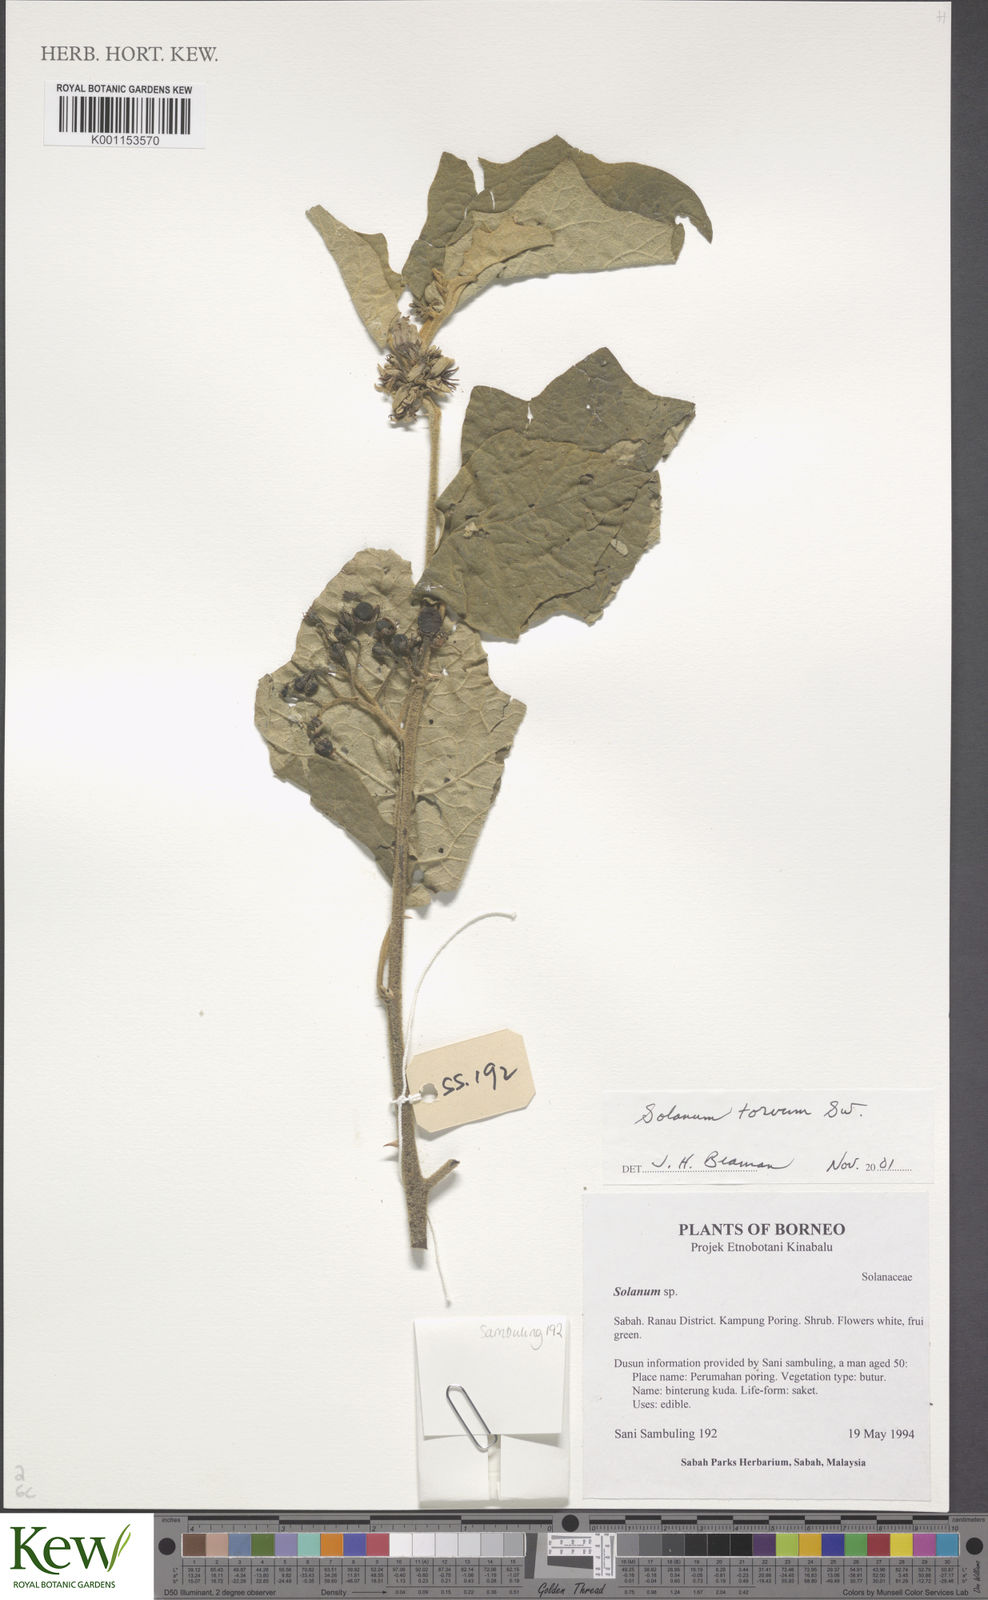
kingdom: Plantae
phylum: Tracheophyta
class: Magnoliopsida
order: Solanales
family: Solanaceae
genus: Solanum
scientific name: Solanum torvum
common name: Turkey berry
